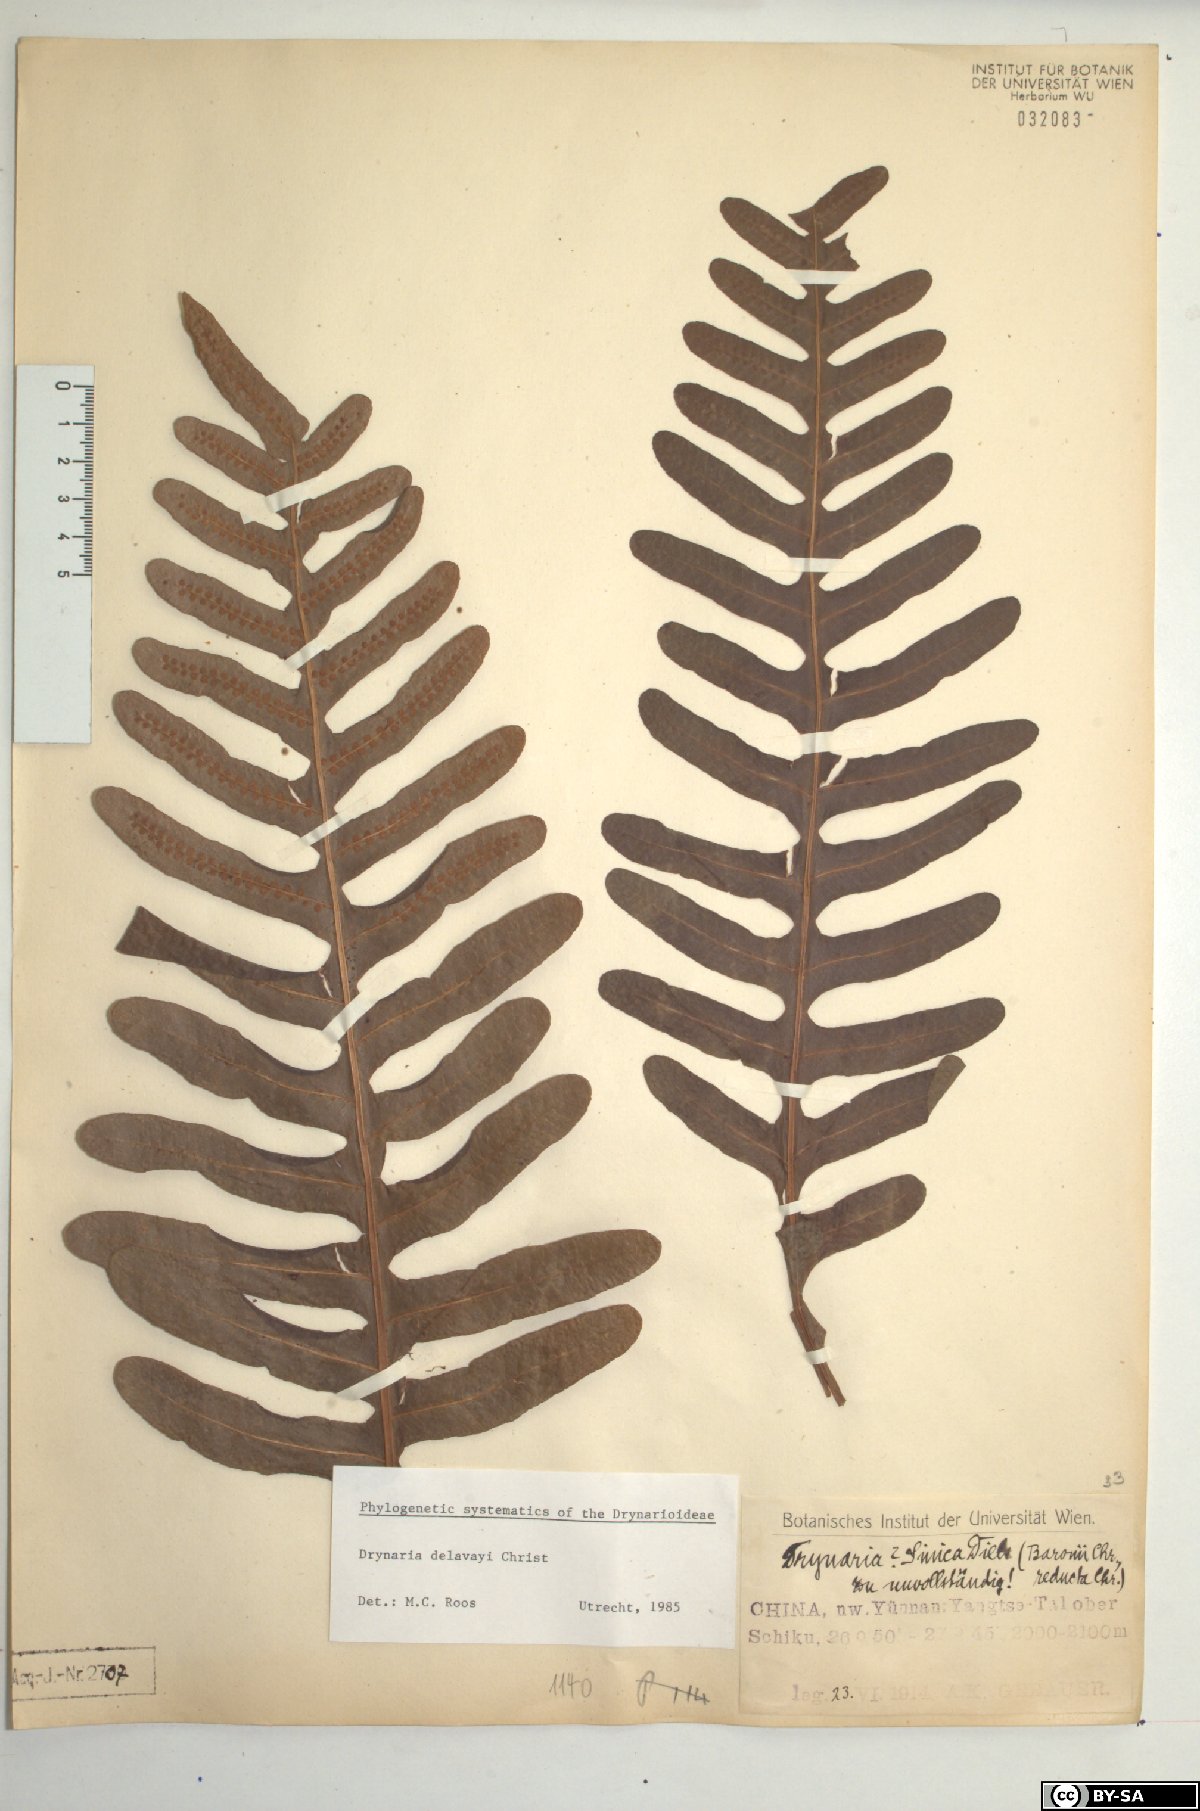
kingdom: Plantae
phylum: Tracheophyta
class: Polypodiopsida
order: Polypodiales
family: Polypodiaceae
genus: Drynaria
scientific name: Drynaria delavayi
